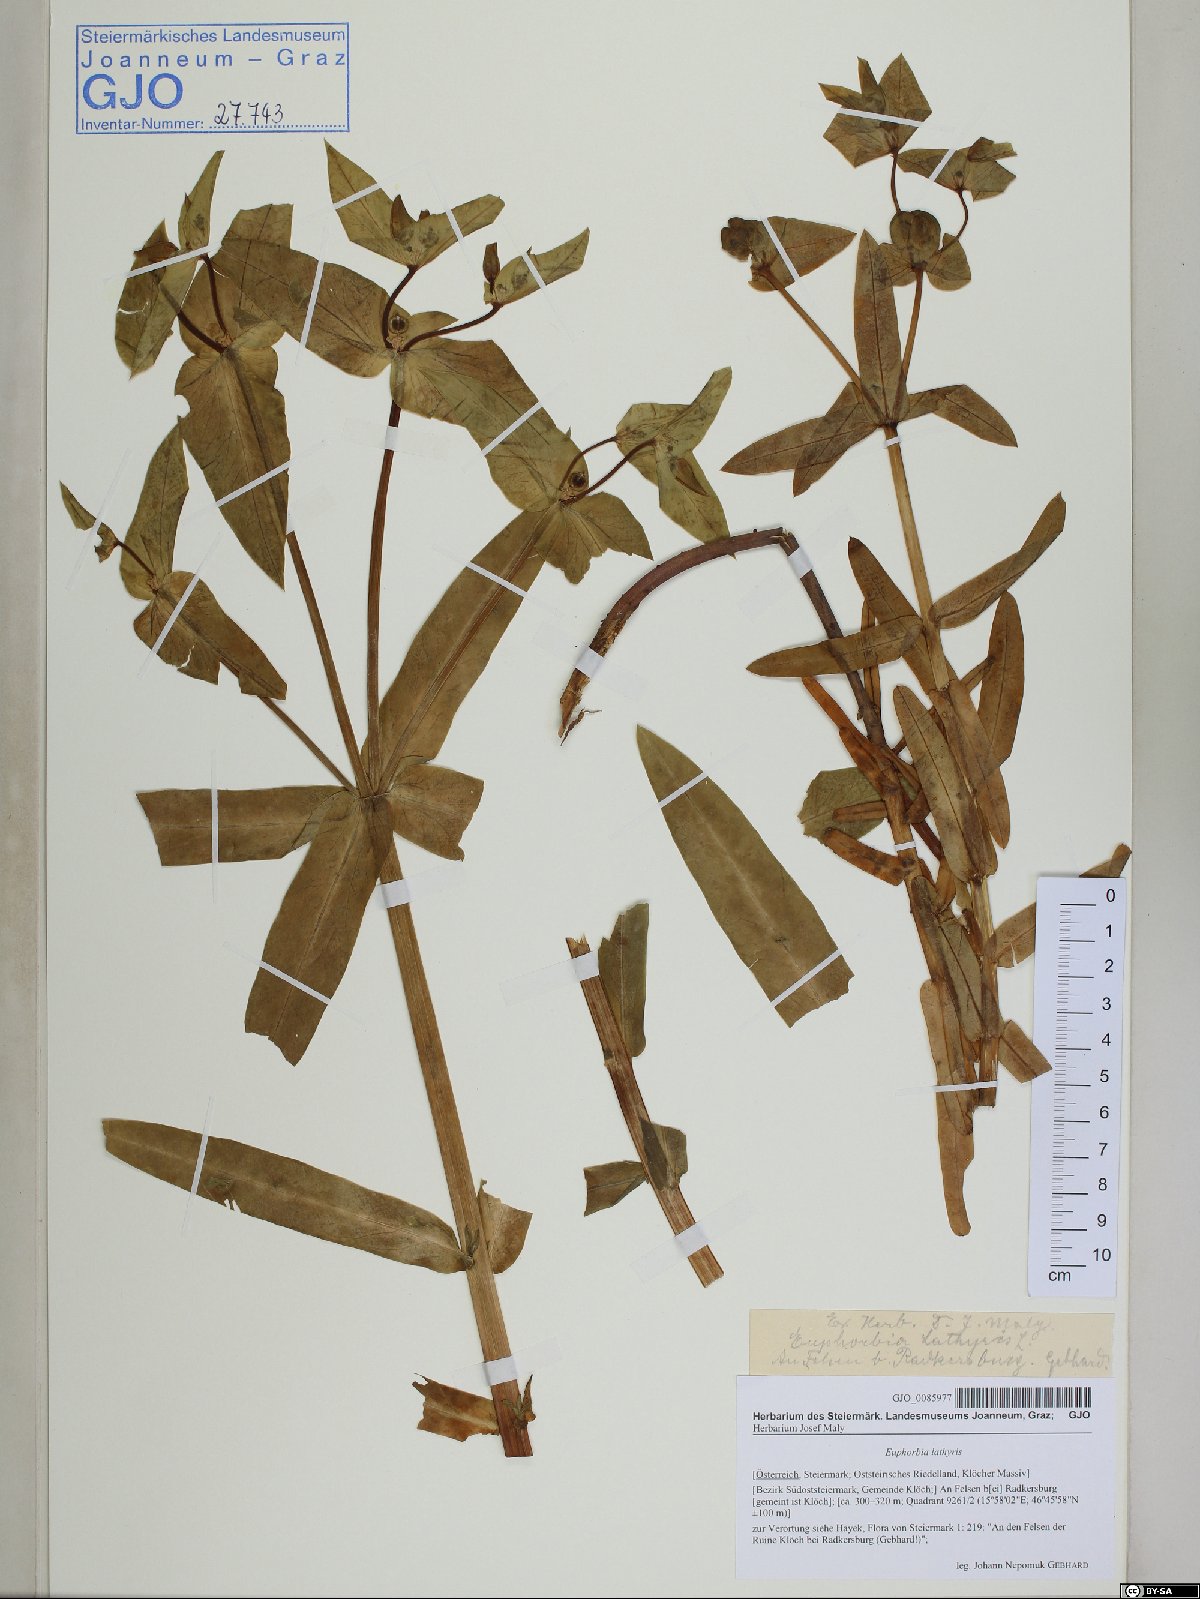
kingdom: Plantae
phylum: Tracheophyta
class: Magnoliopsida
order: Malpighiales
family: Euphorbiaceae
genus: Euphorbia
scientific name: Euphorbia lathyris
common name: Caper spurge
